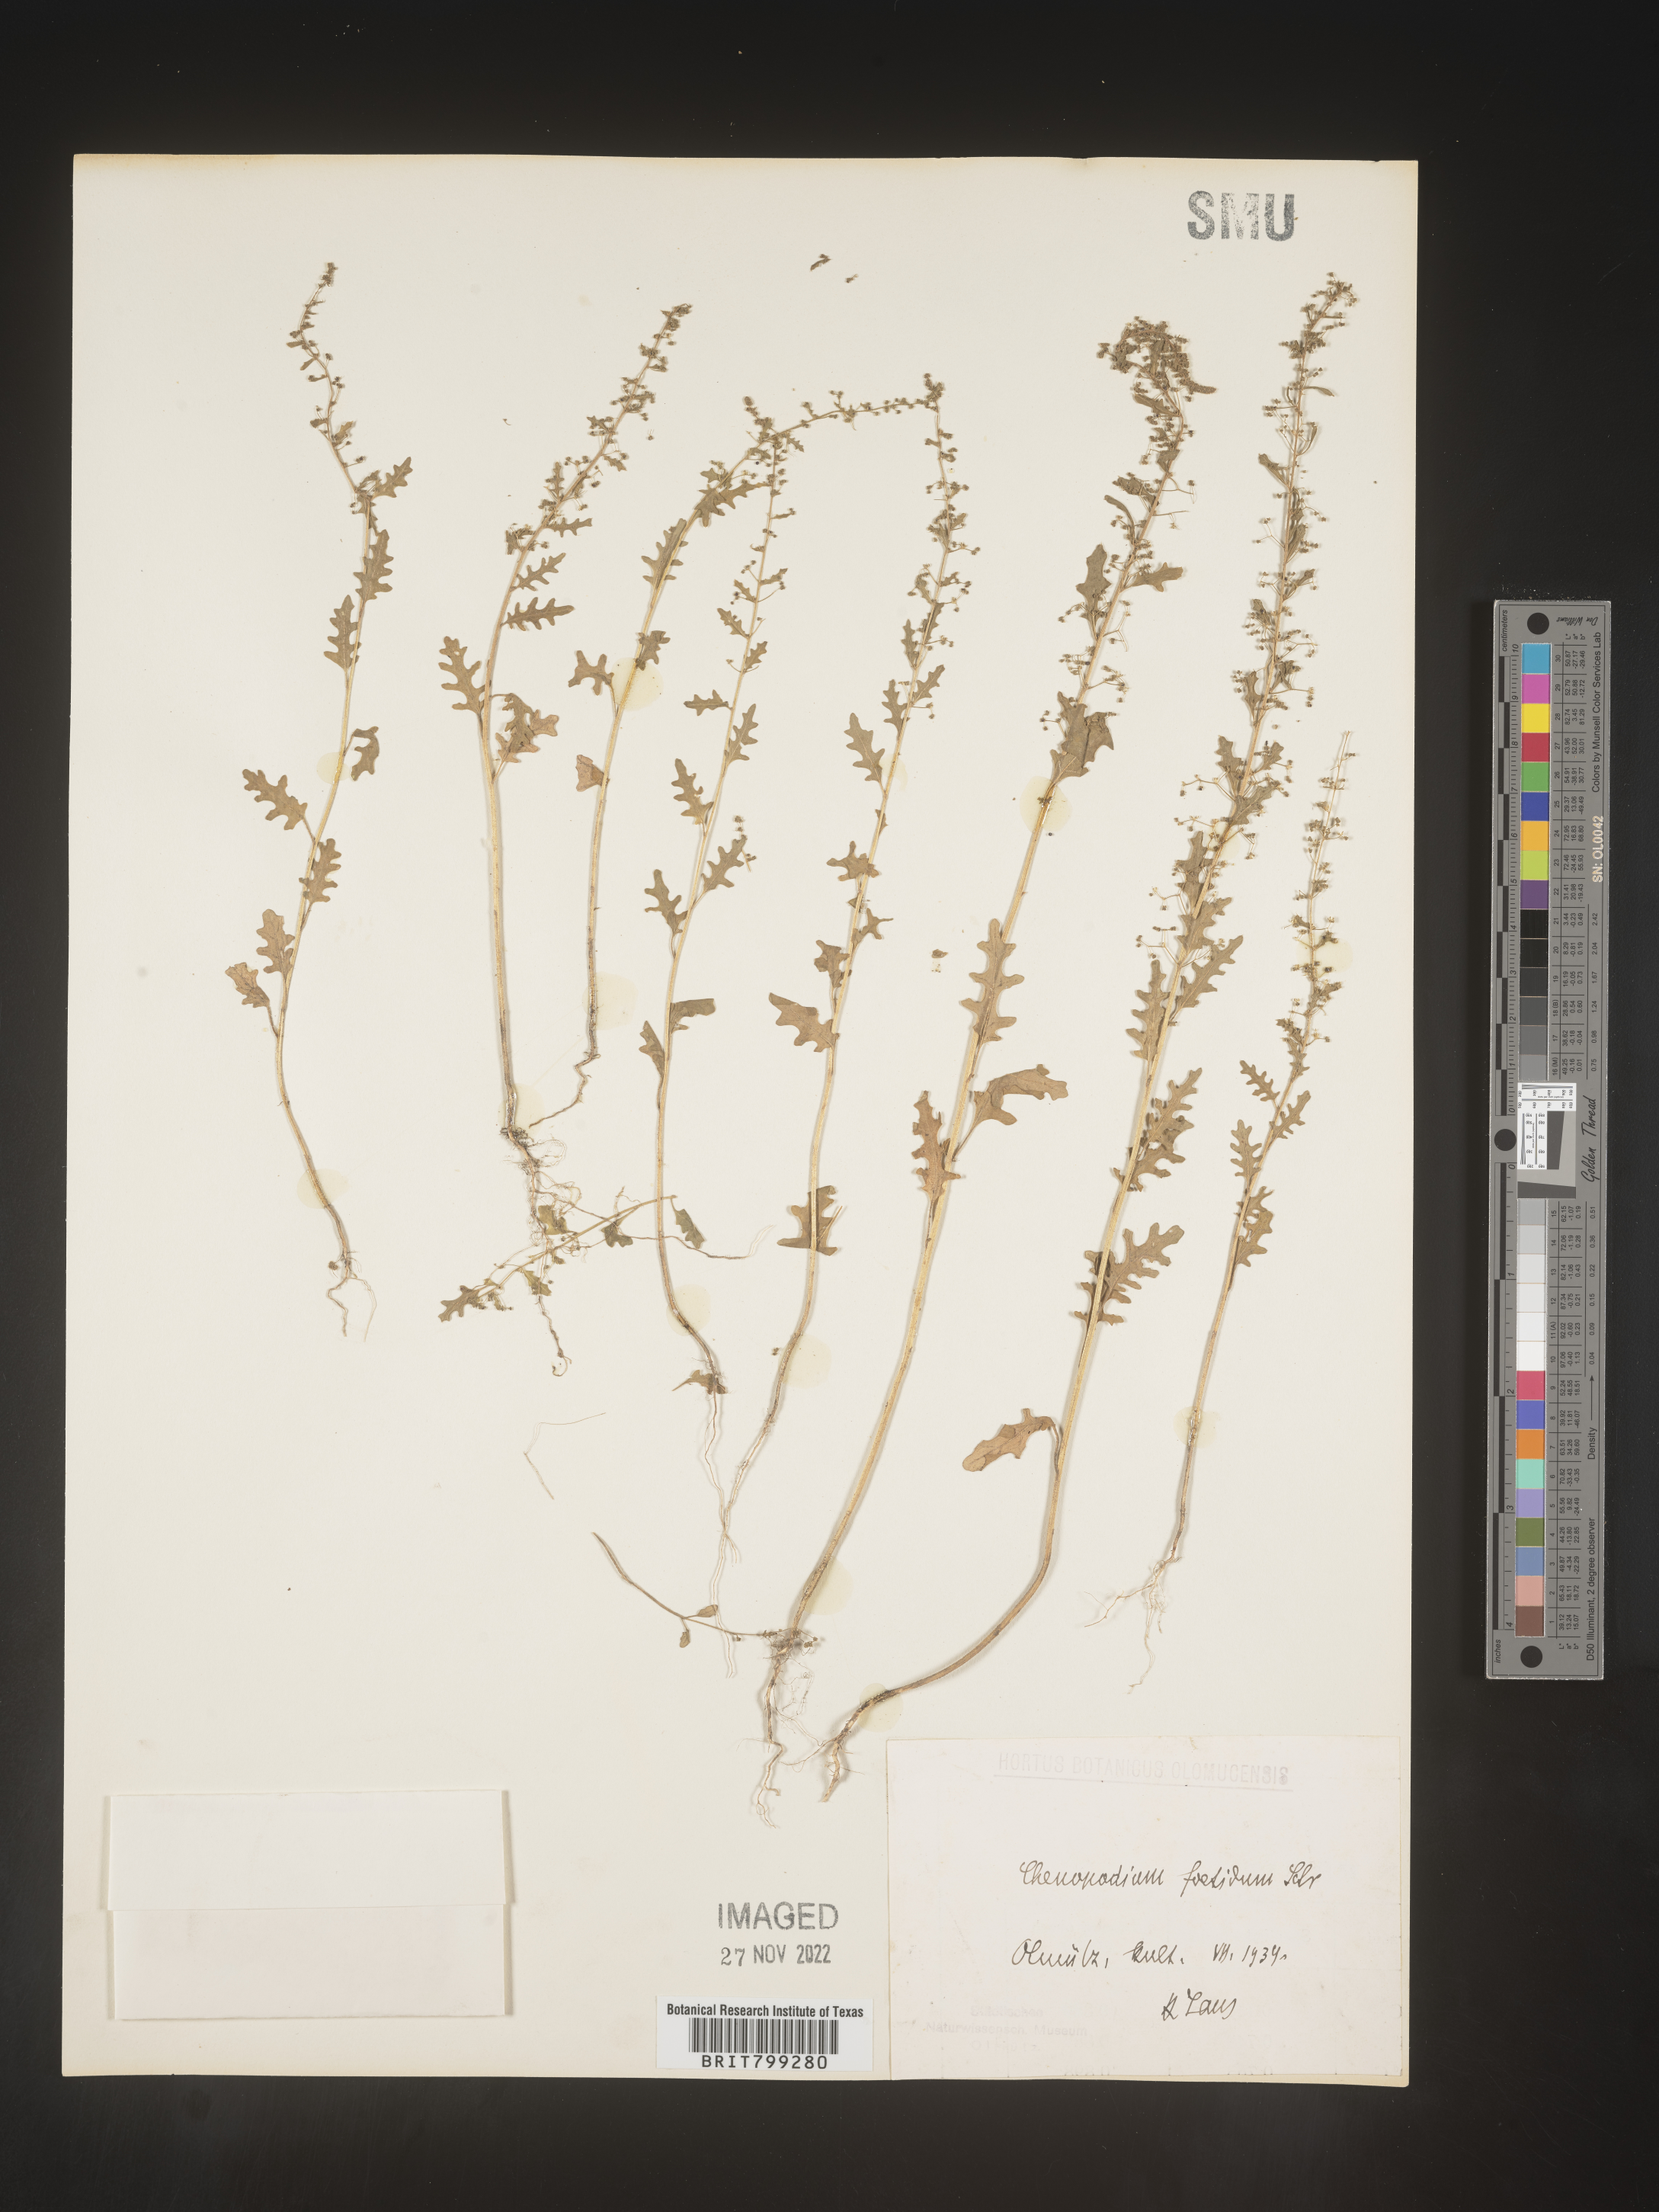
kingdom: Plantae
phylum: Tracheophyta
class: Magnoliopsida
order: Caryophyllales
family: Amaranthaceae
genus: Chenopodium
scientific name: Chenopodium
